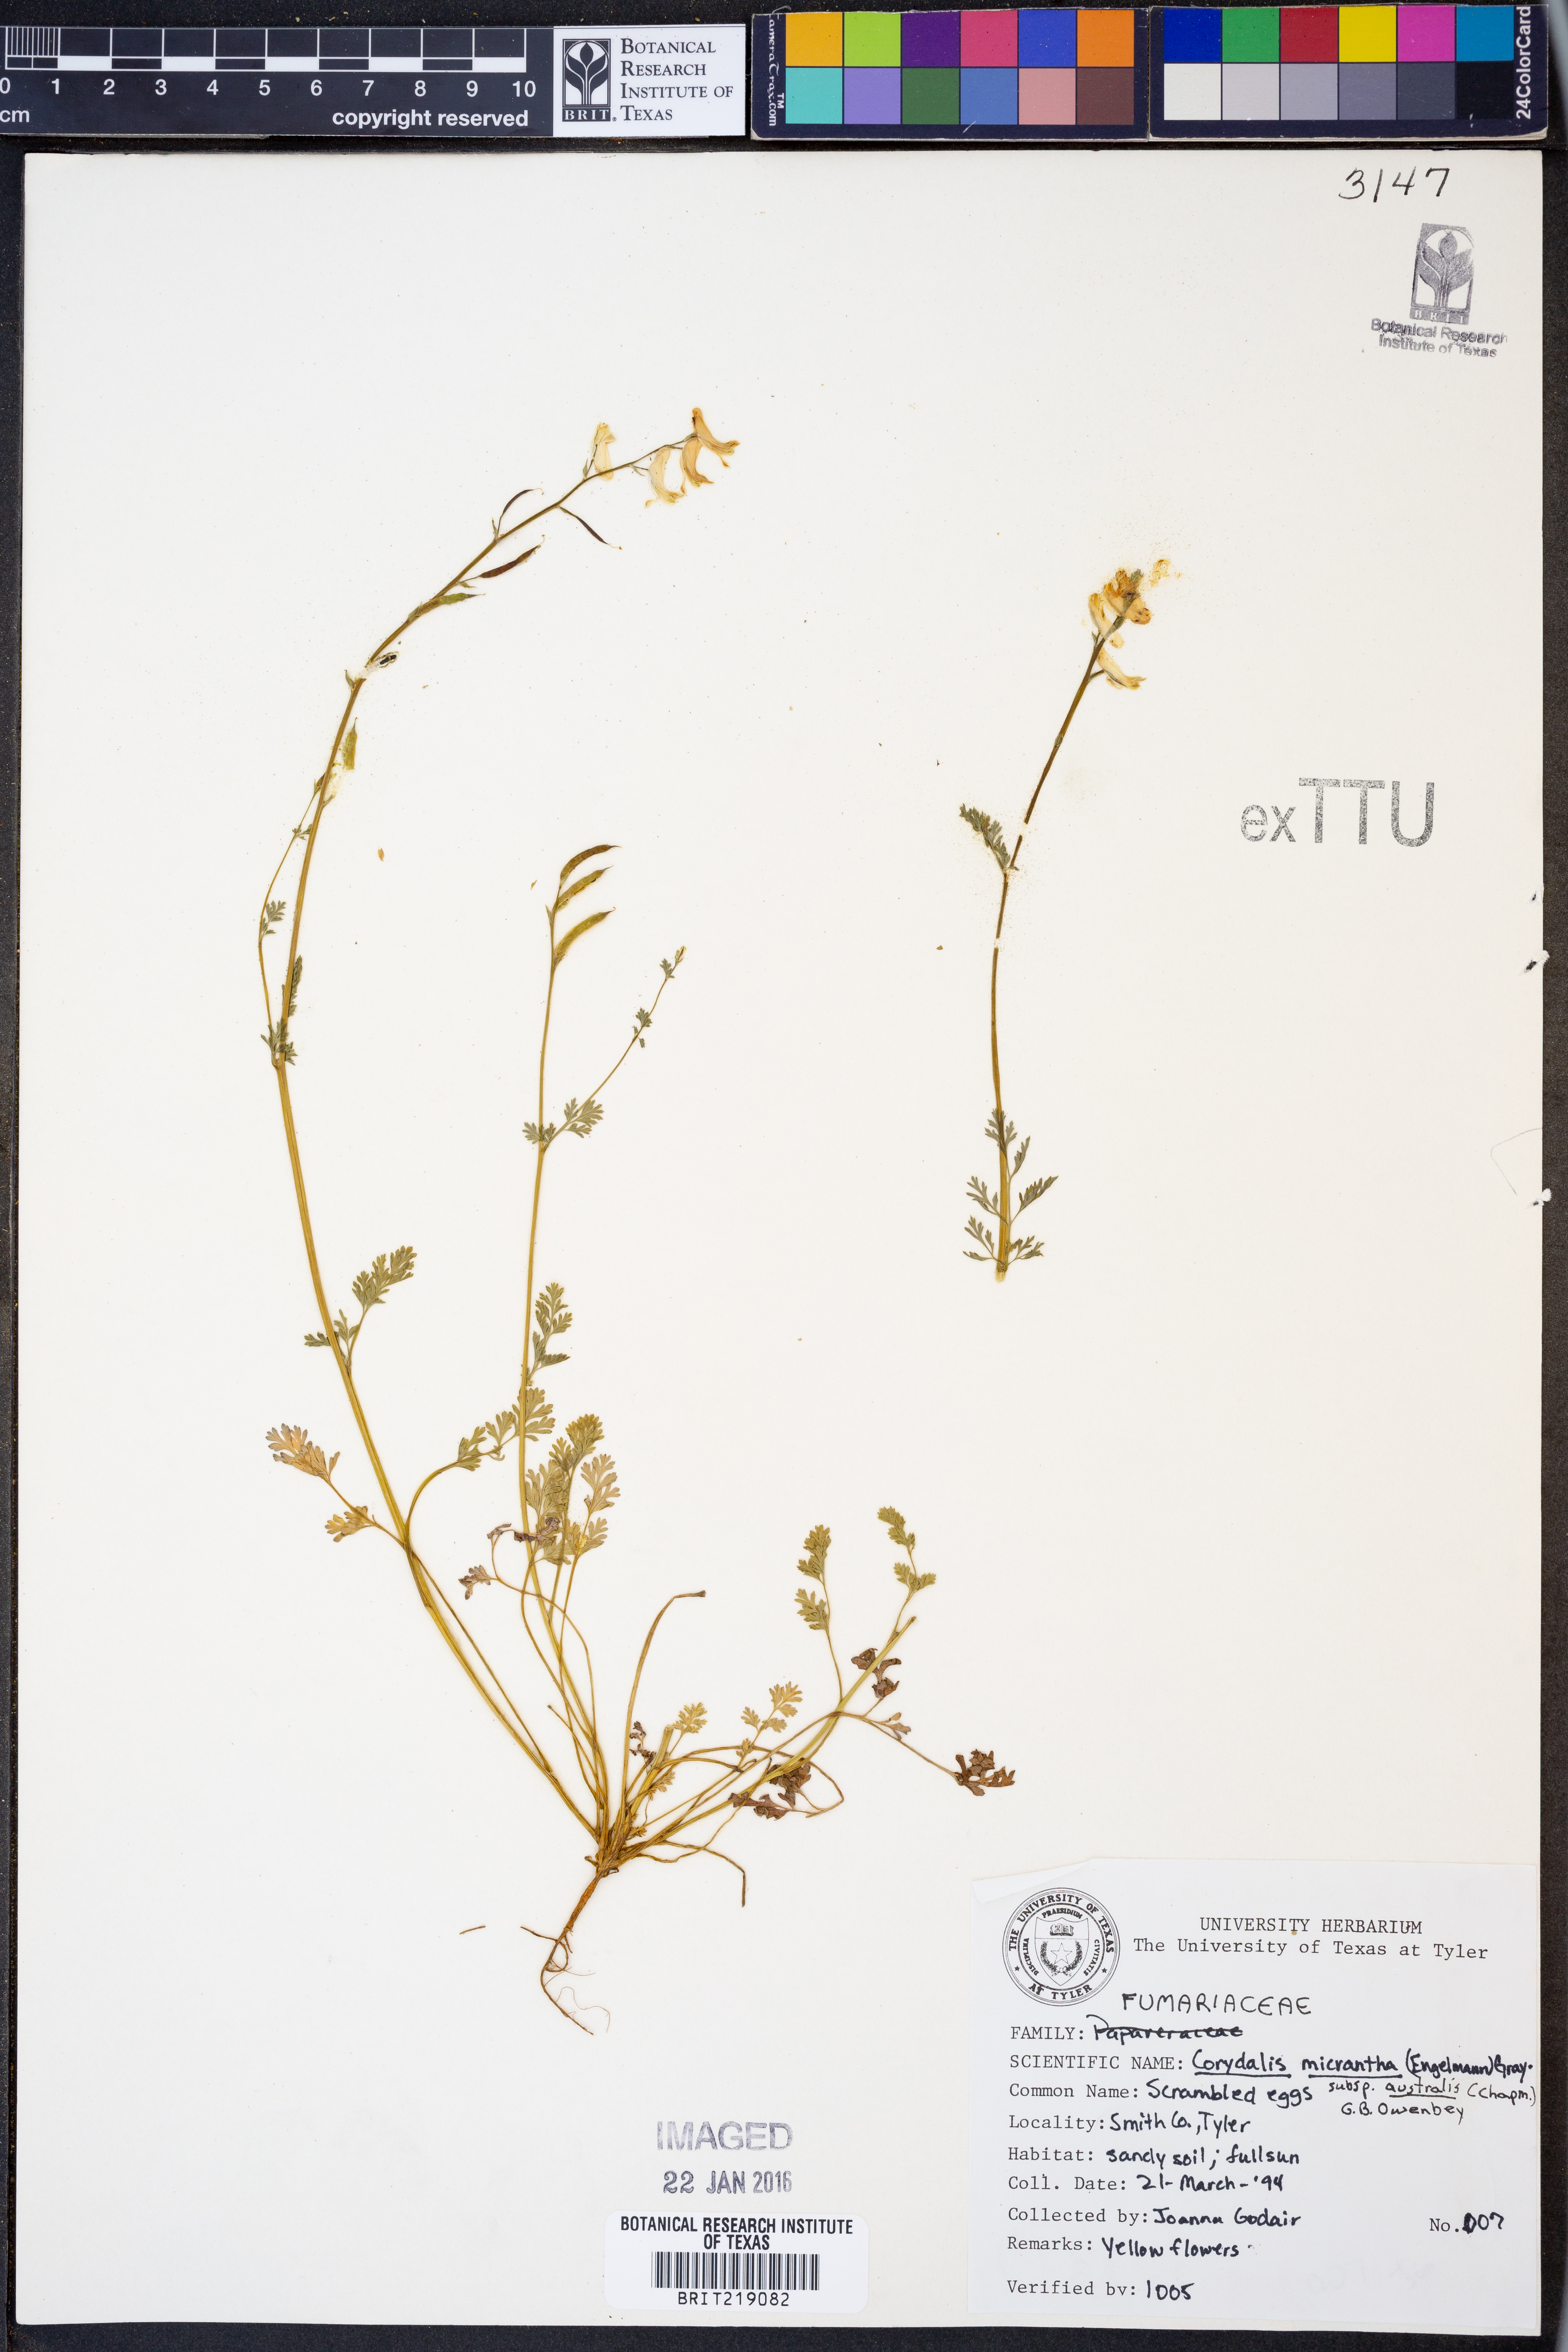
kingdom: Plantae
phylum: Tracheophyta
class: Magnoliopsida
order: Ranunculales
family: Papaveraceae
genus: Corydalis
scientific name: Corydalis micrantha
